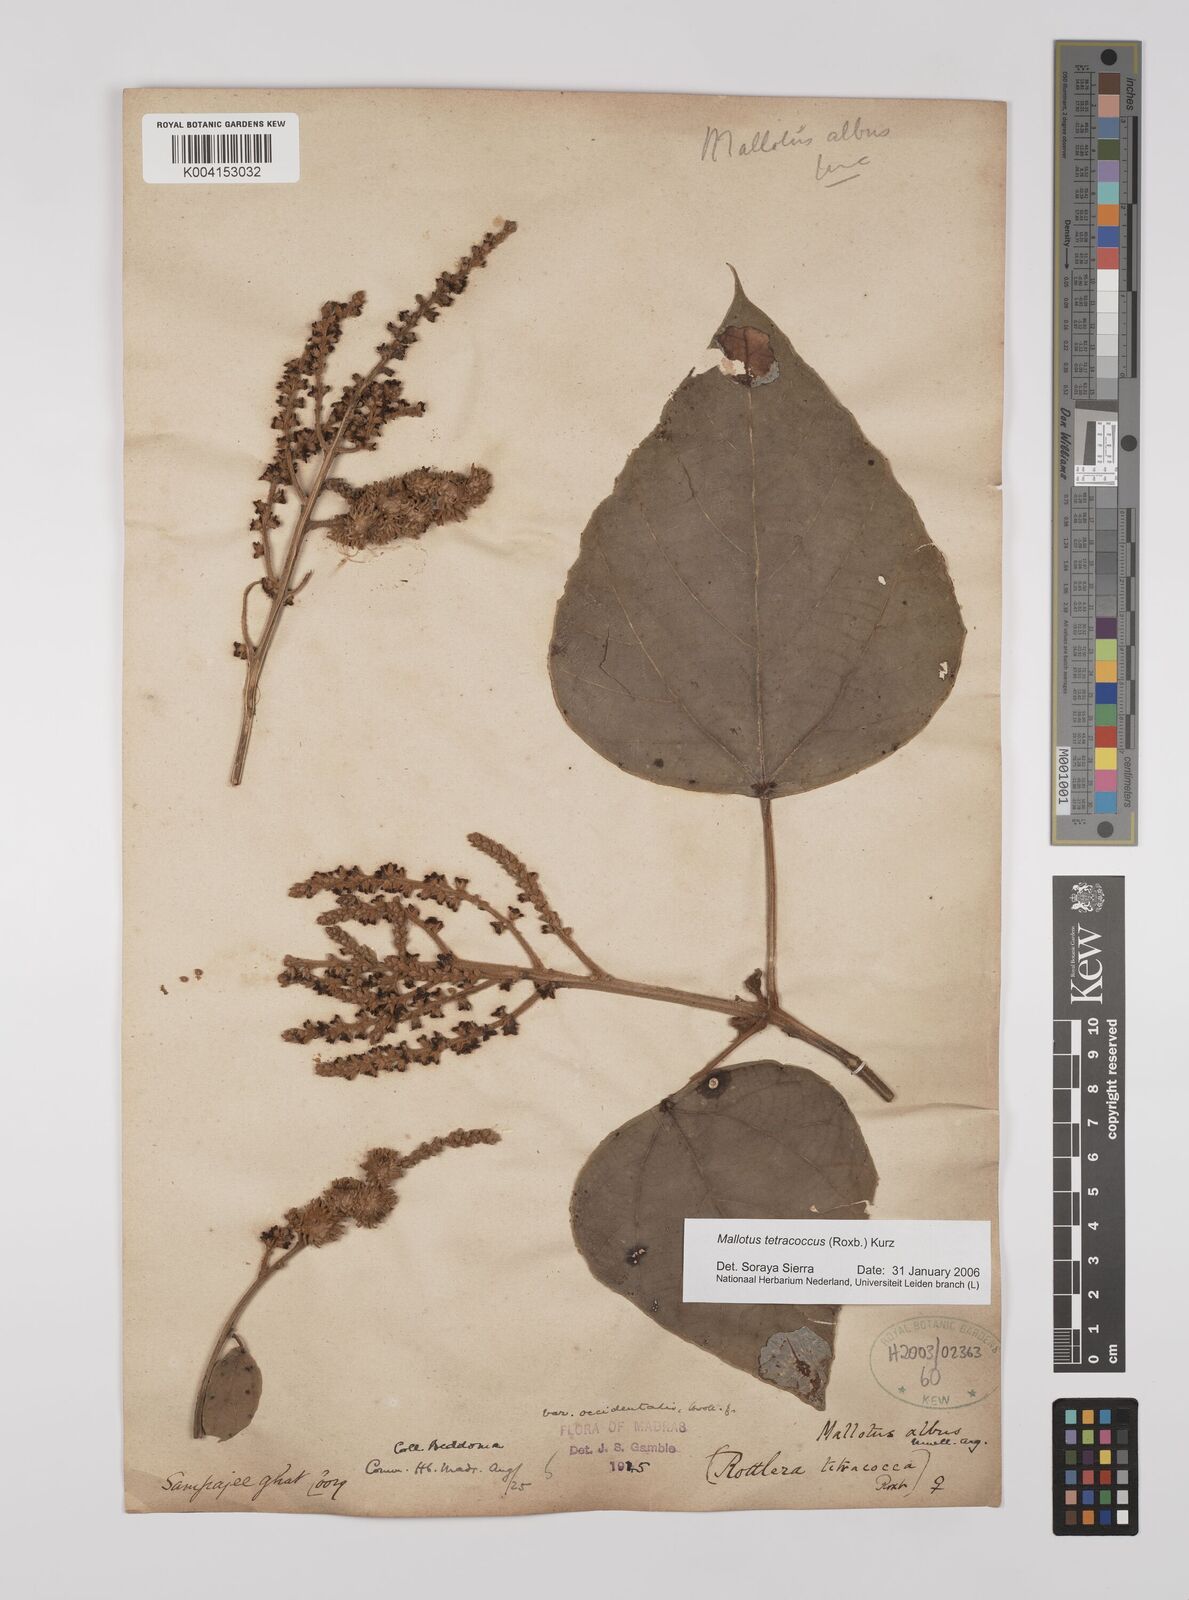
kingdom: Plantae
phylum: Tracheophyta
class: Magnoliopsida
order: Malpighiales
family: Euphorbiaceae
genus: Mallotus
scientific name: Mallotus tetracoccus
